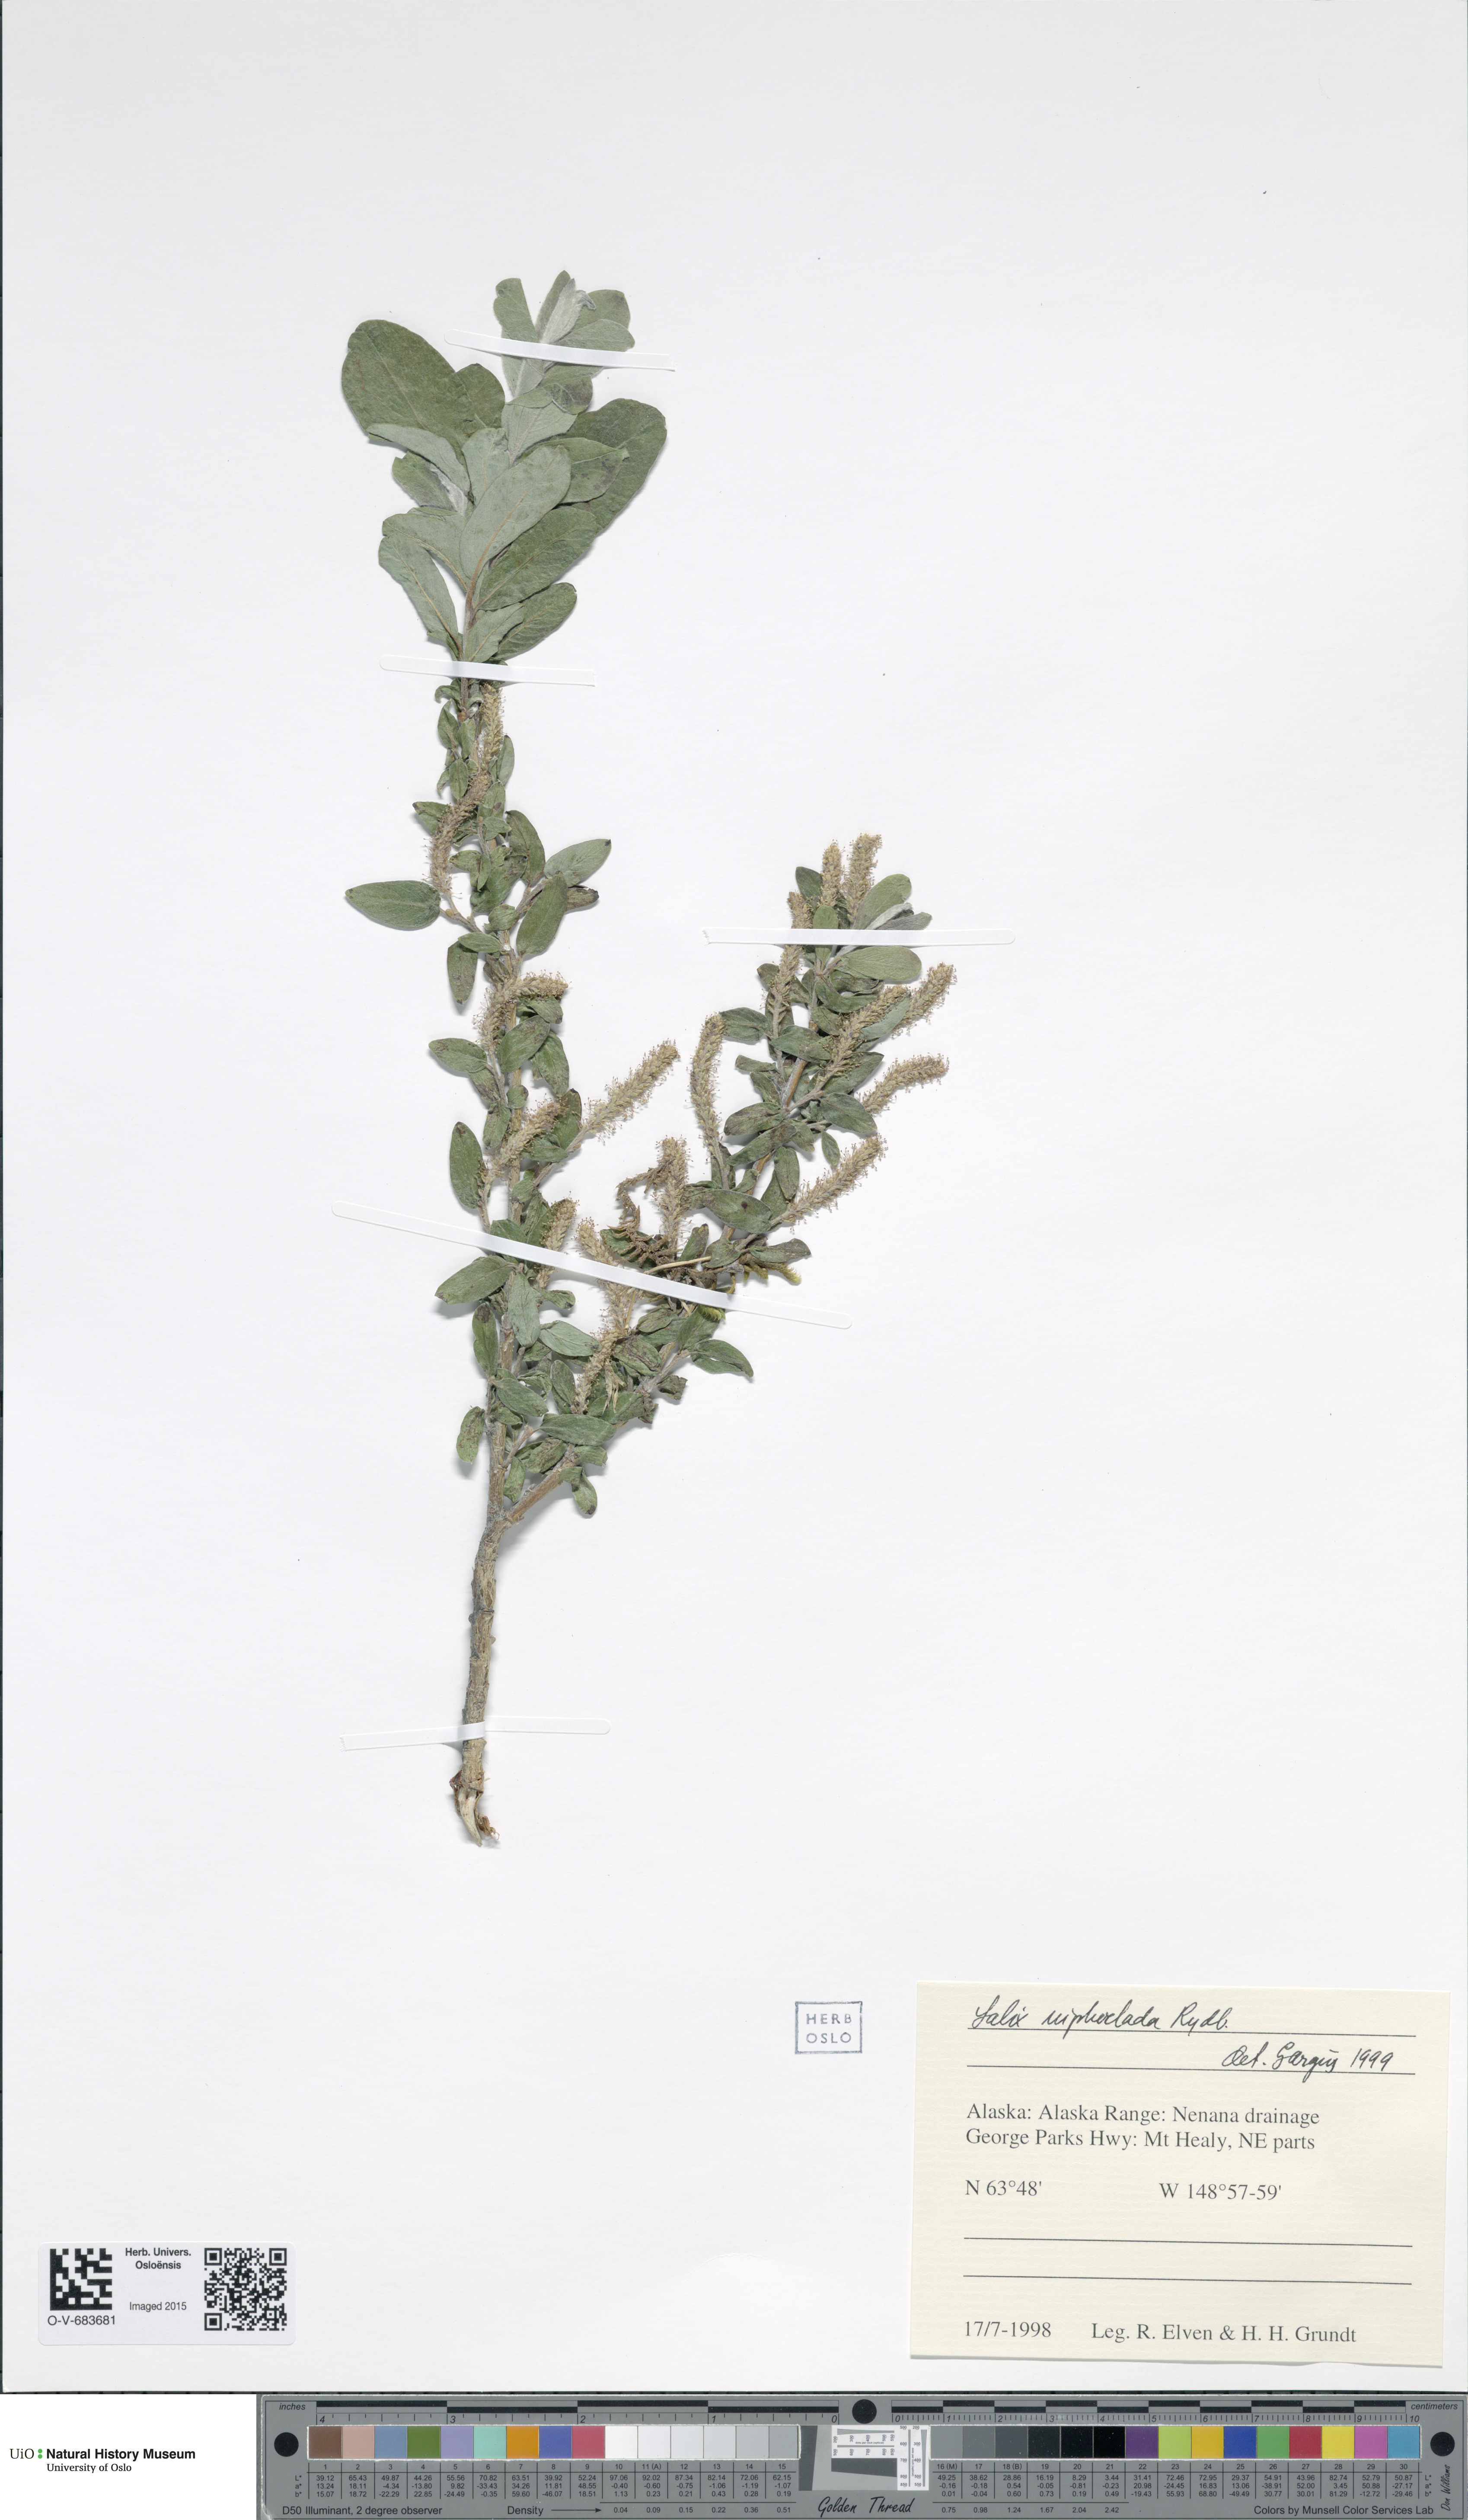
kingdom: Plantae
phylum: Tracheophyta
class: Magnoliopsida
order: Malpighiales
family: Salicaceae
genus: Salix
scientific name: Salix niphoclada
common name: Barren-ground willow
